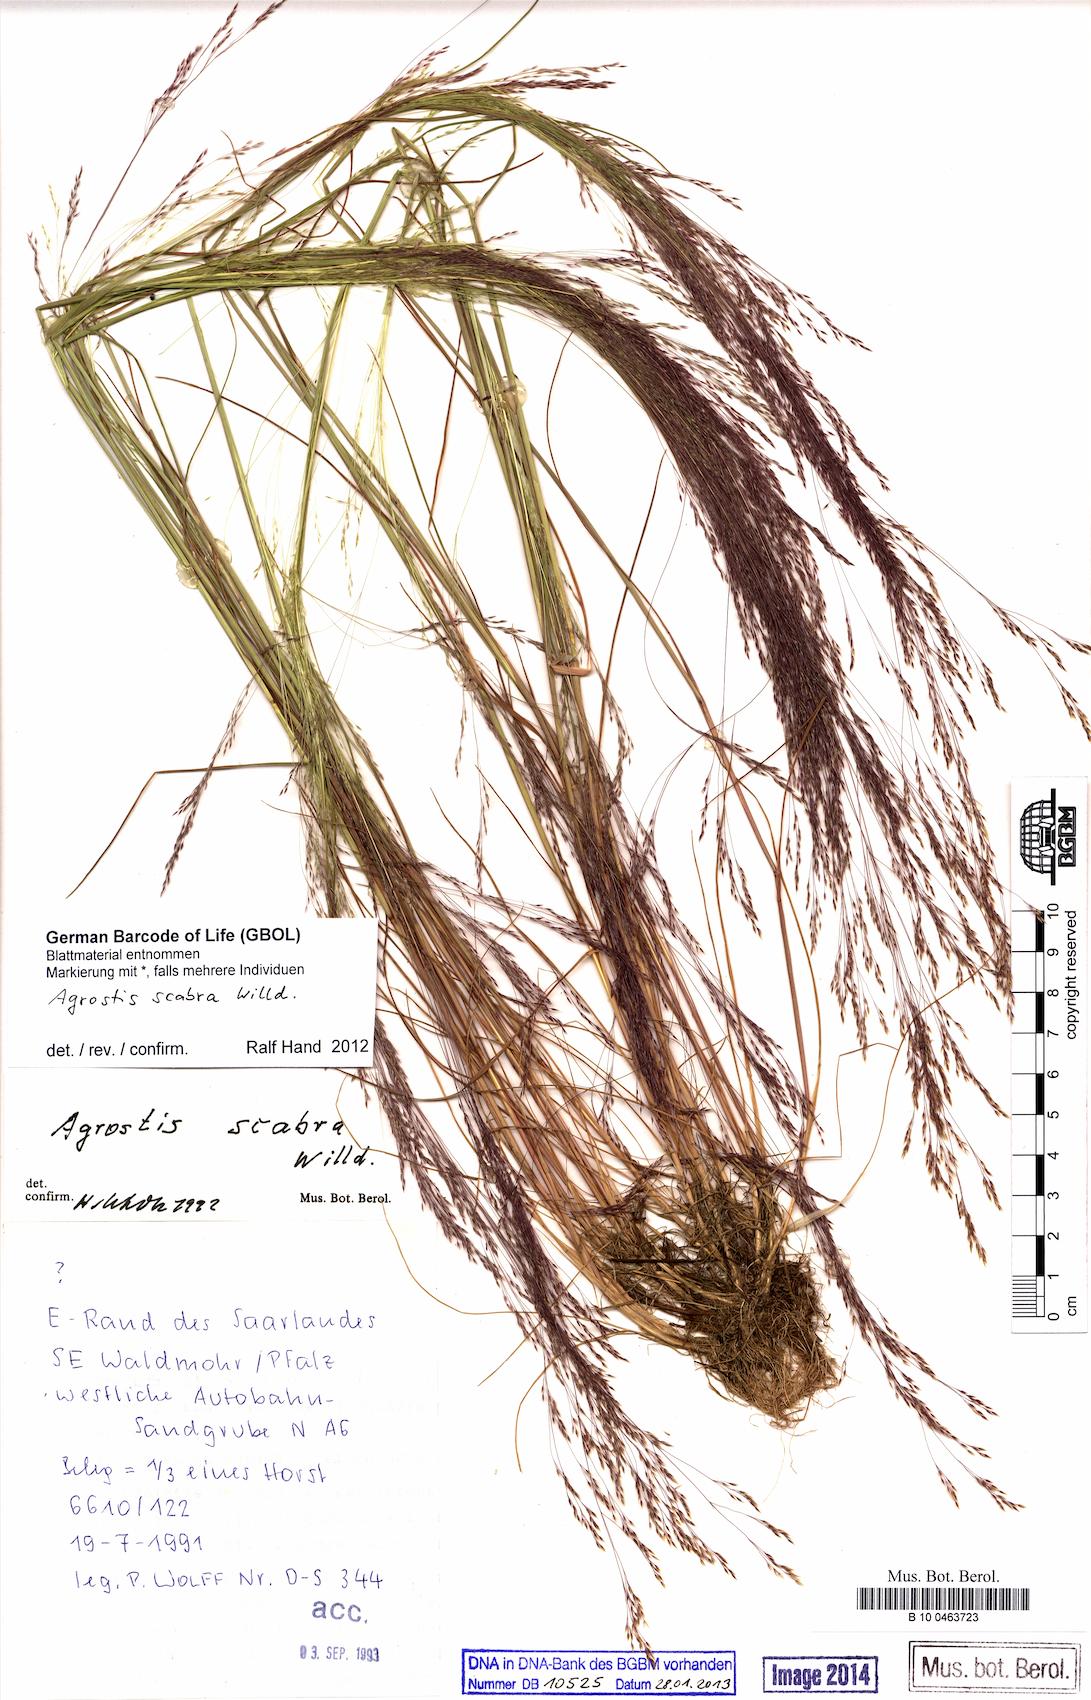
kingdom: Plantae
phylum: Tracheophyta
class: Liliopsida
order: Poales
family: Poaceae
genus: Agrostis
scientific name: Agrostis scabra
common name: Rough bent
